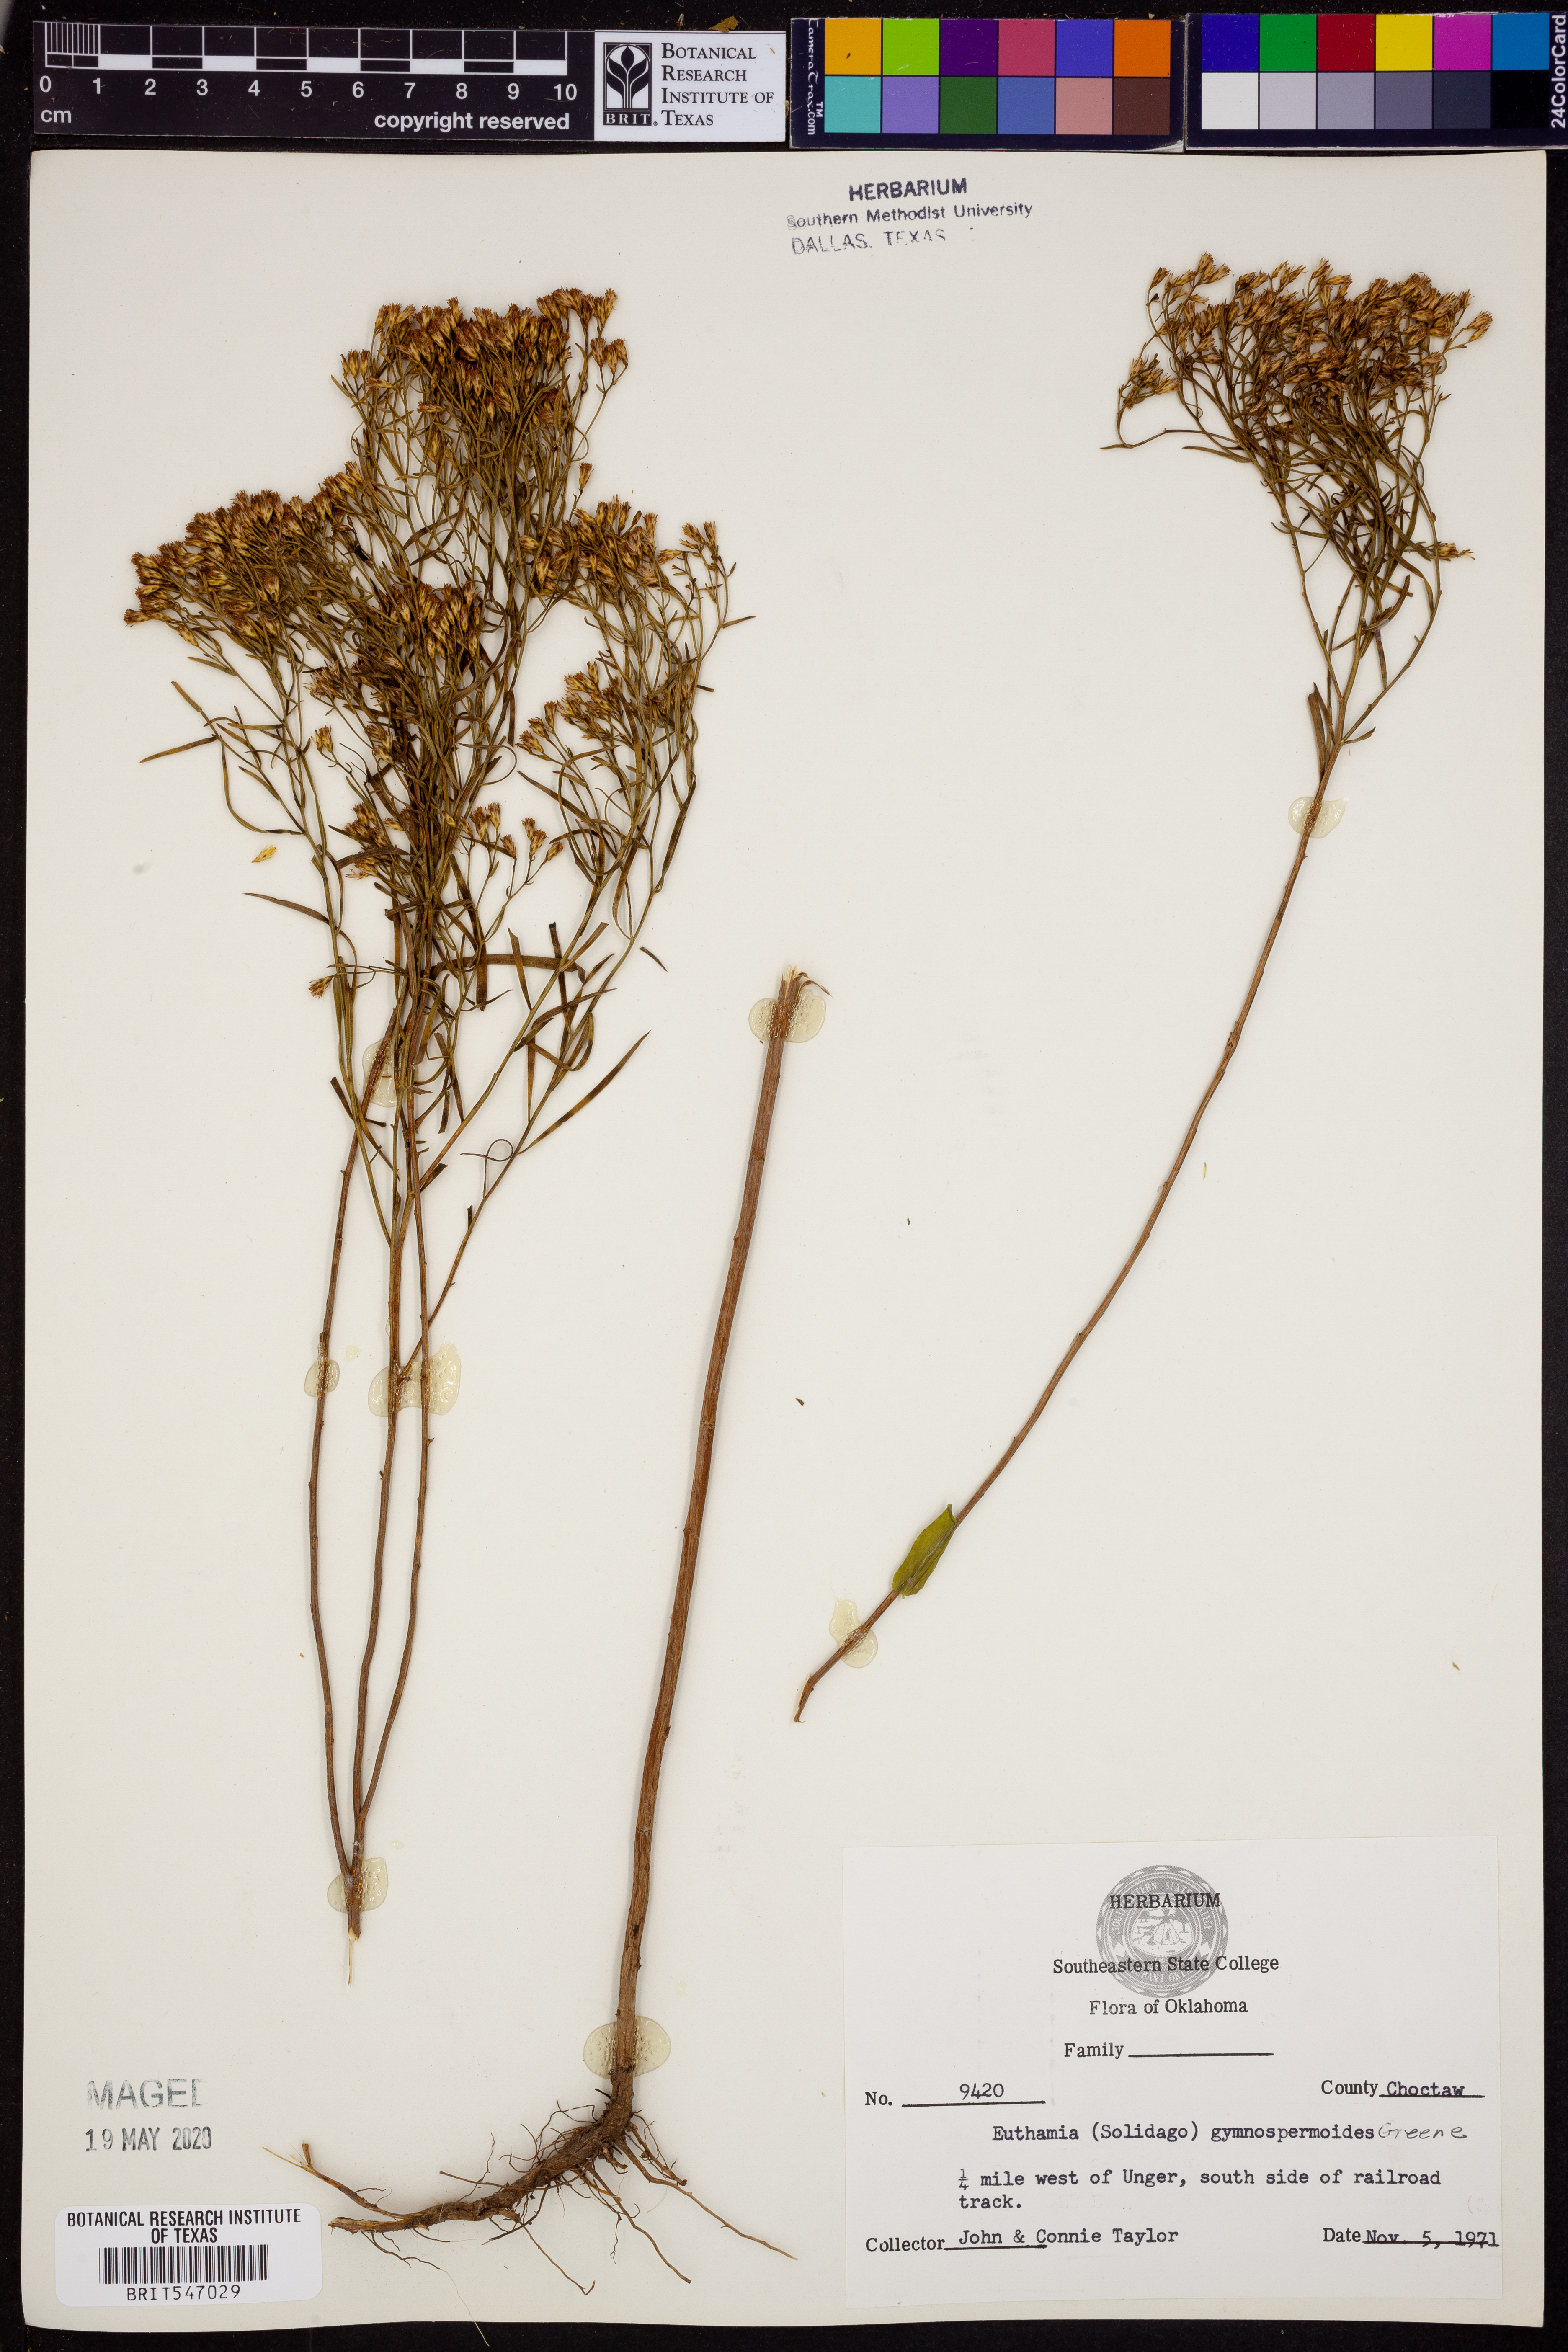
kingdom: Plantae
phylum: Tracheophyta
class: Magnoliopsida
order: Asterales
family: Asteraceae
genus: Euthamia
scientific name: Euthamia gymnospermoides
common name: Great plains goldentop
